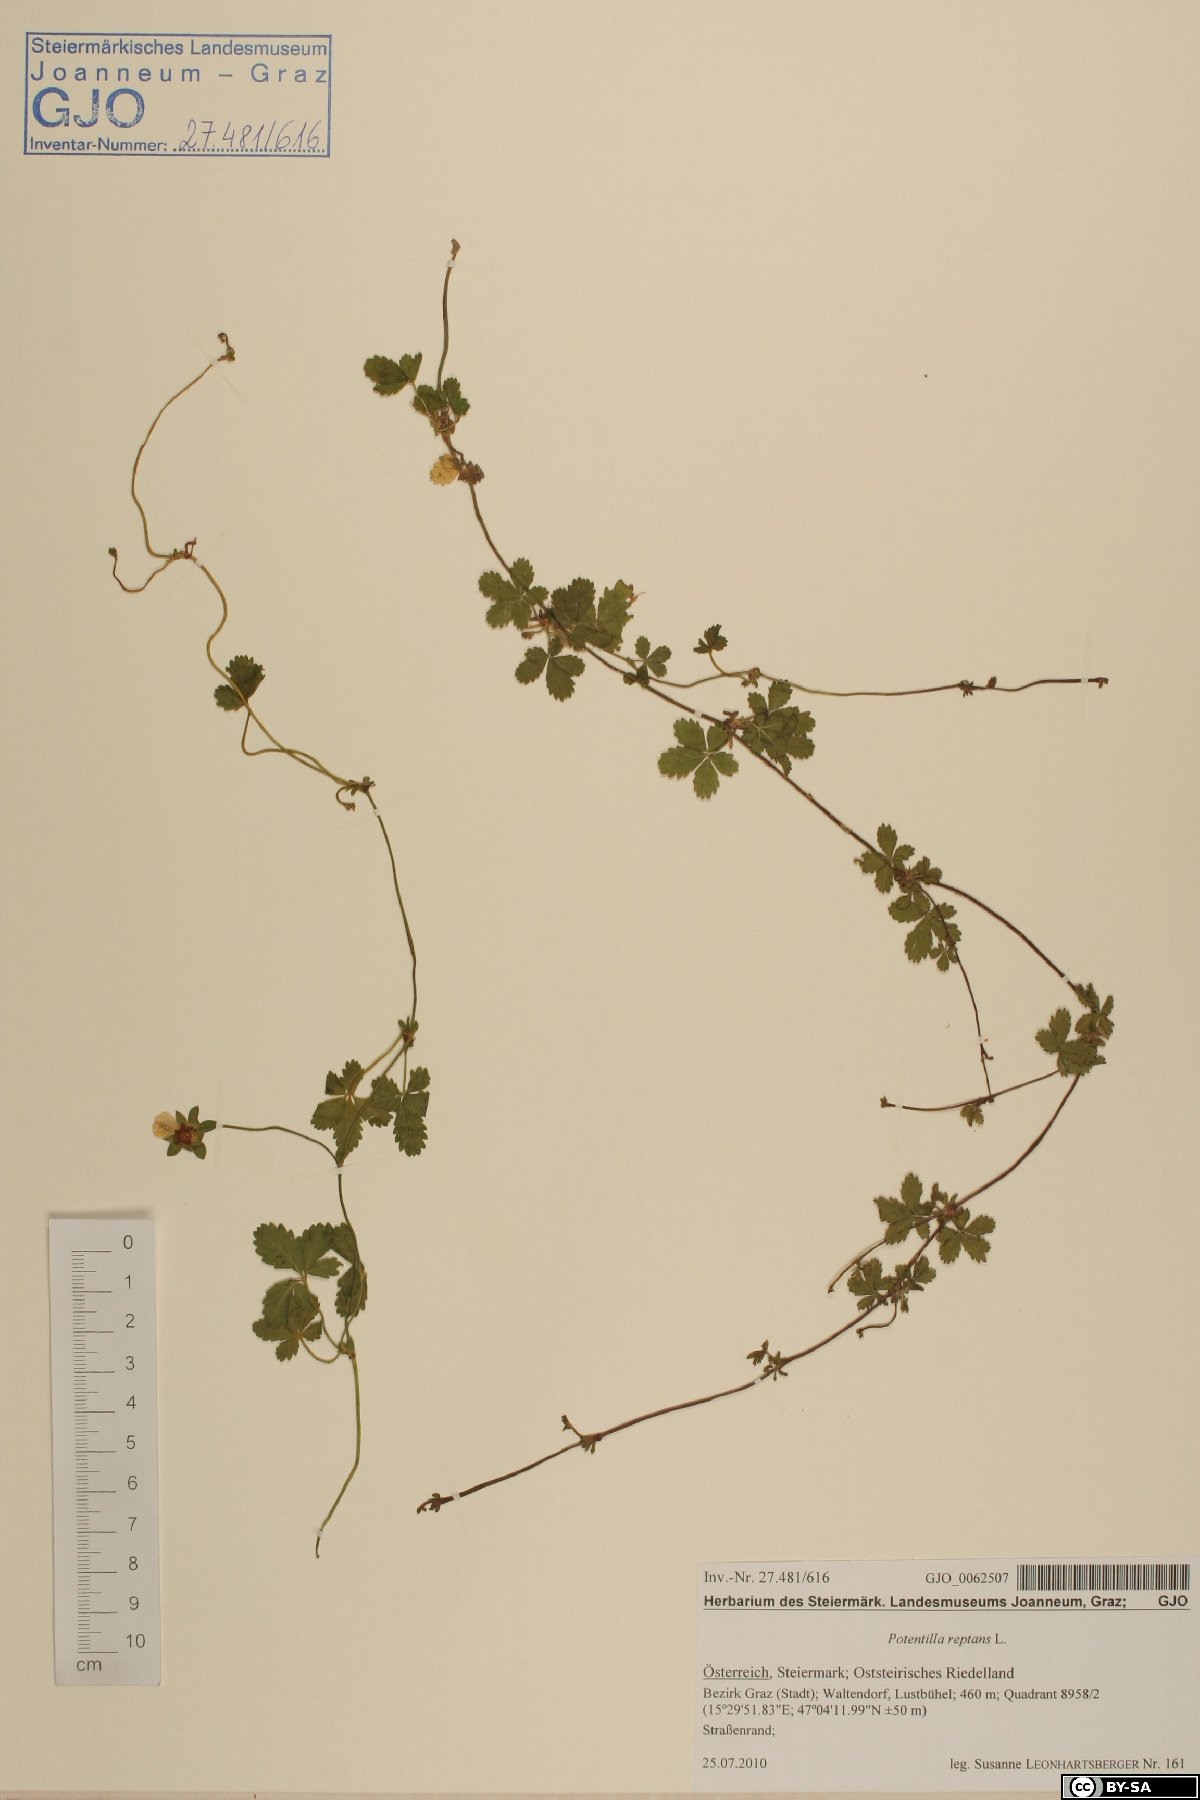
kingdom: Plantae
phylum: Tracheophyta
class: Magnoliopsida
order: Rosales
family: Rosaceae
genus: Potentilla
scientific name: Potentilla reptans
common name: Creeping cinquefoil
